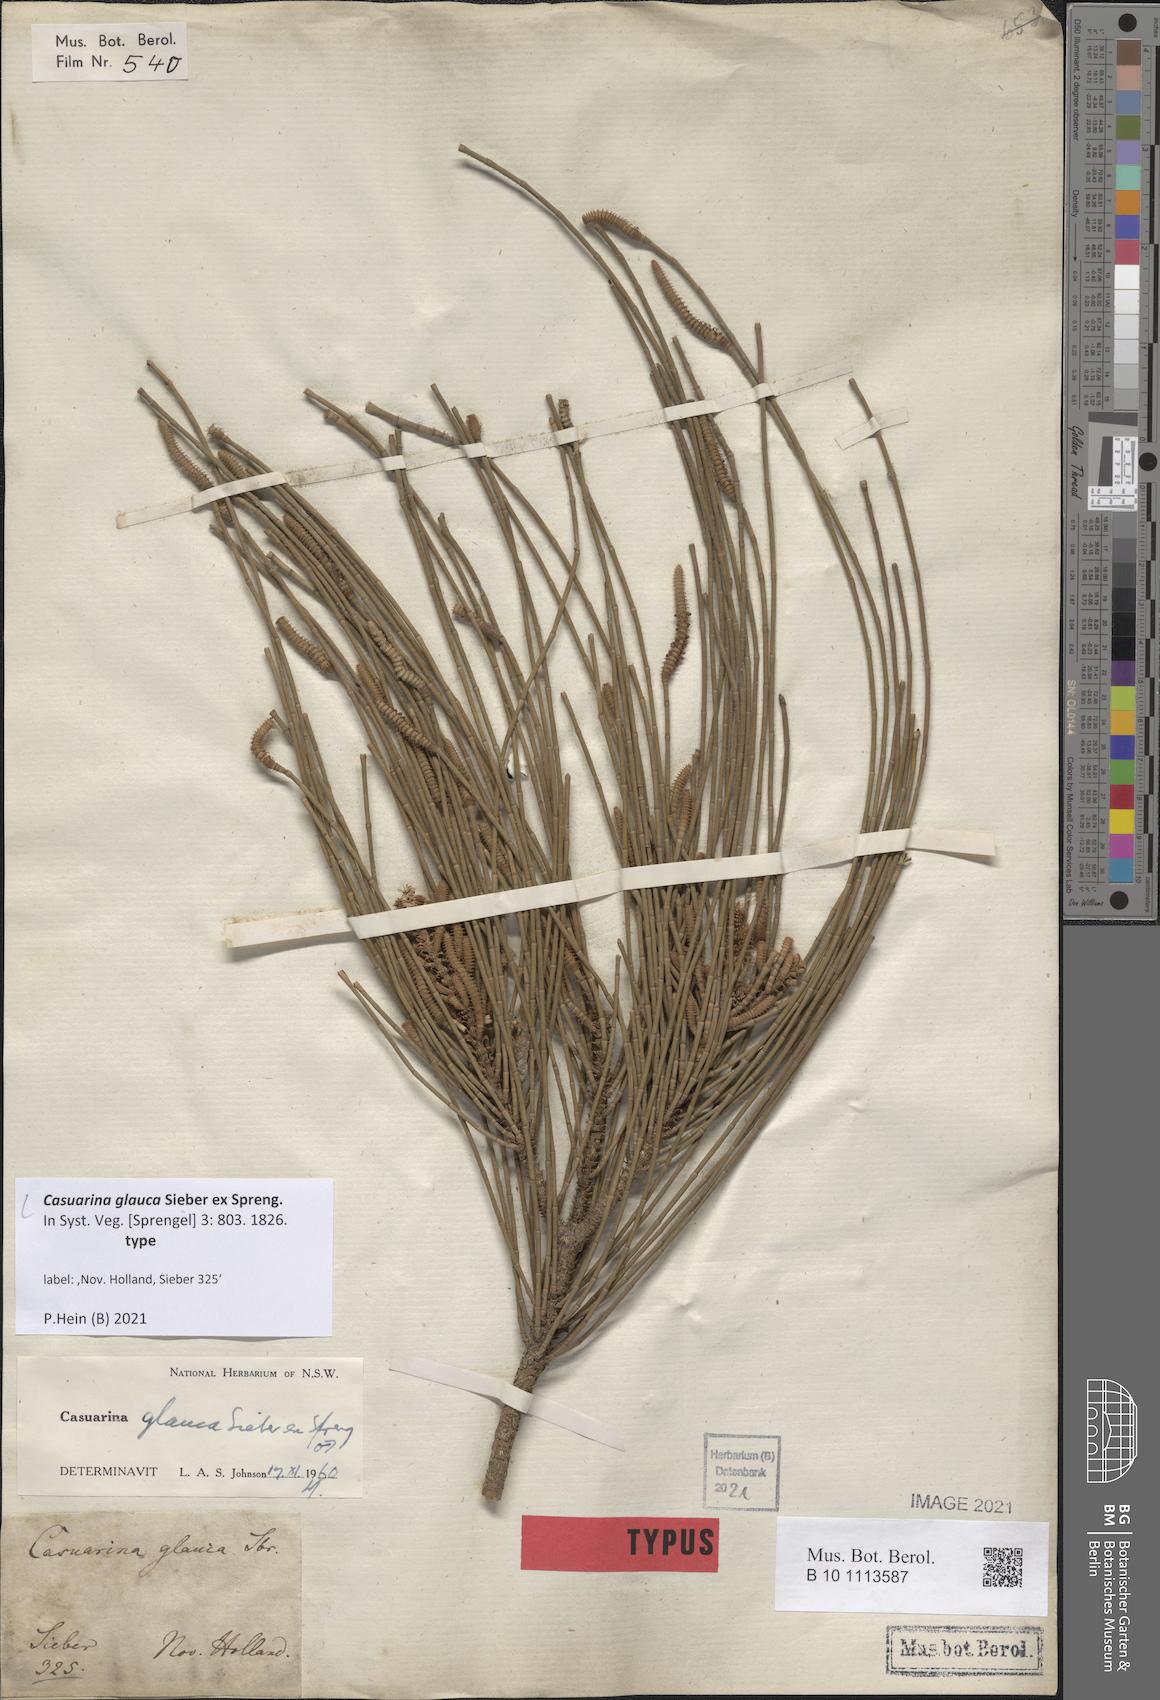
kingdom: Plantae
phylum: Tracheophyta
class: Magnoliopsida
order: Fagales
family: Casuarinaceae
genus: Casuarina
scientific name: Casuarina glauca
